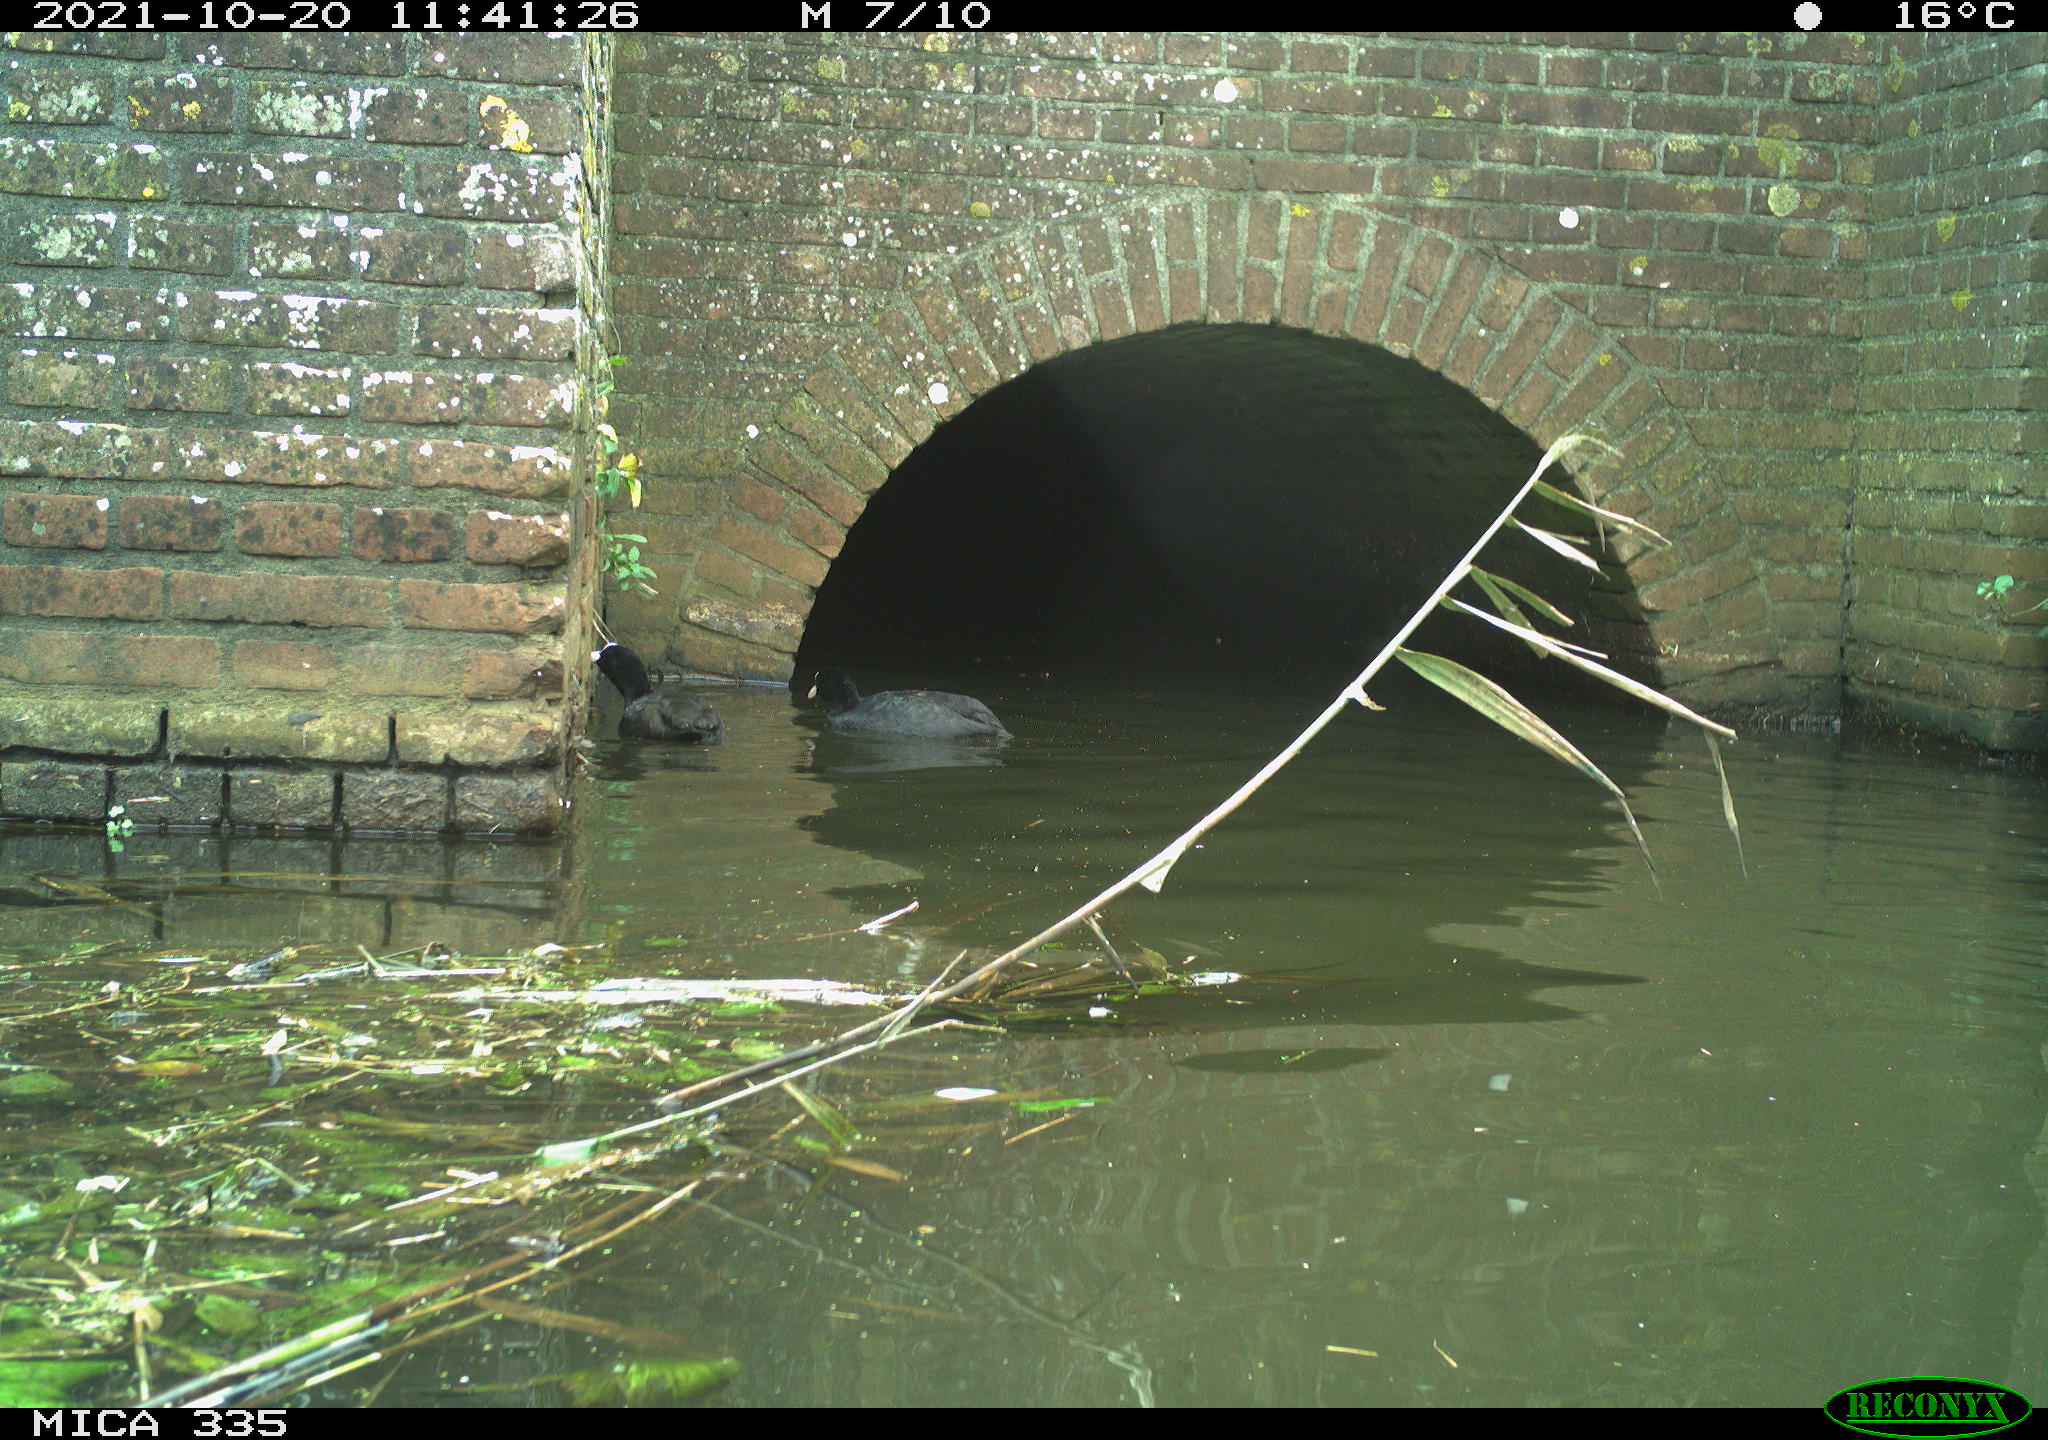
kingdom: Animalia
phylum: Chordata
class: Aves
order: Gruiformes
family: Rallidae
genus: Fulica
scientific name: Fulica atra
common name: Eurasian coot
